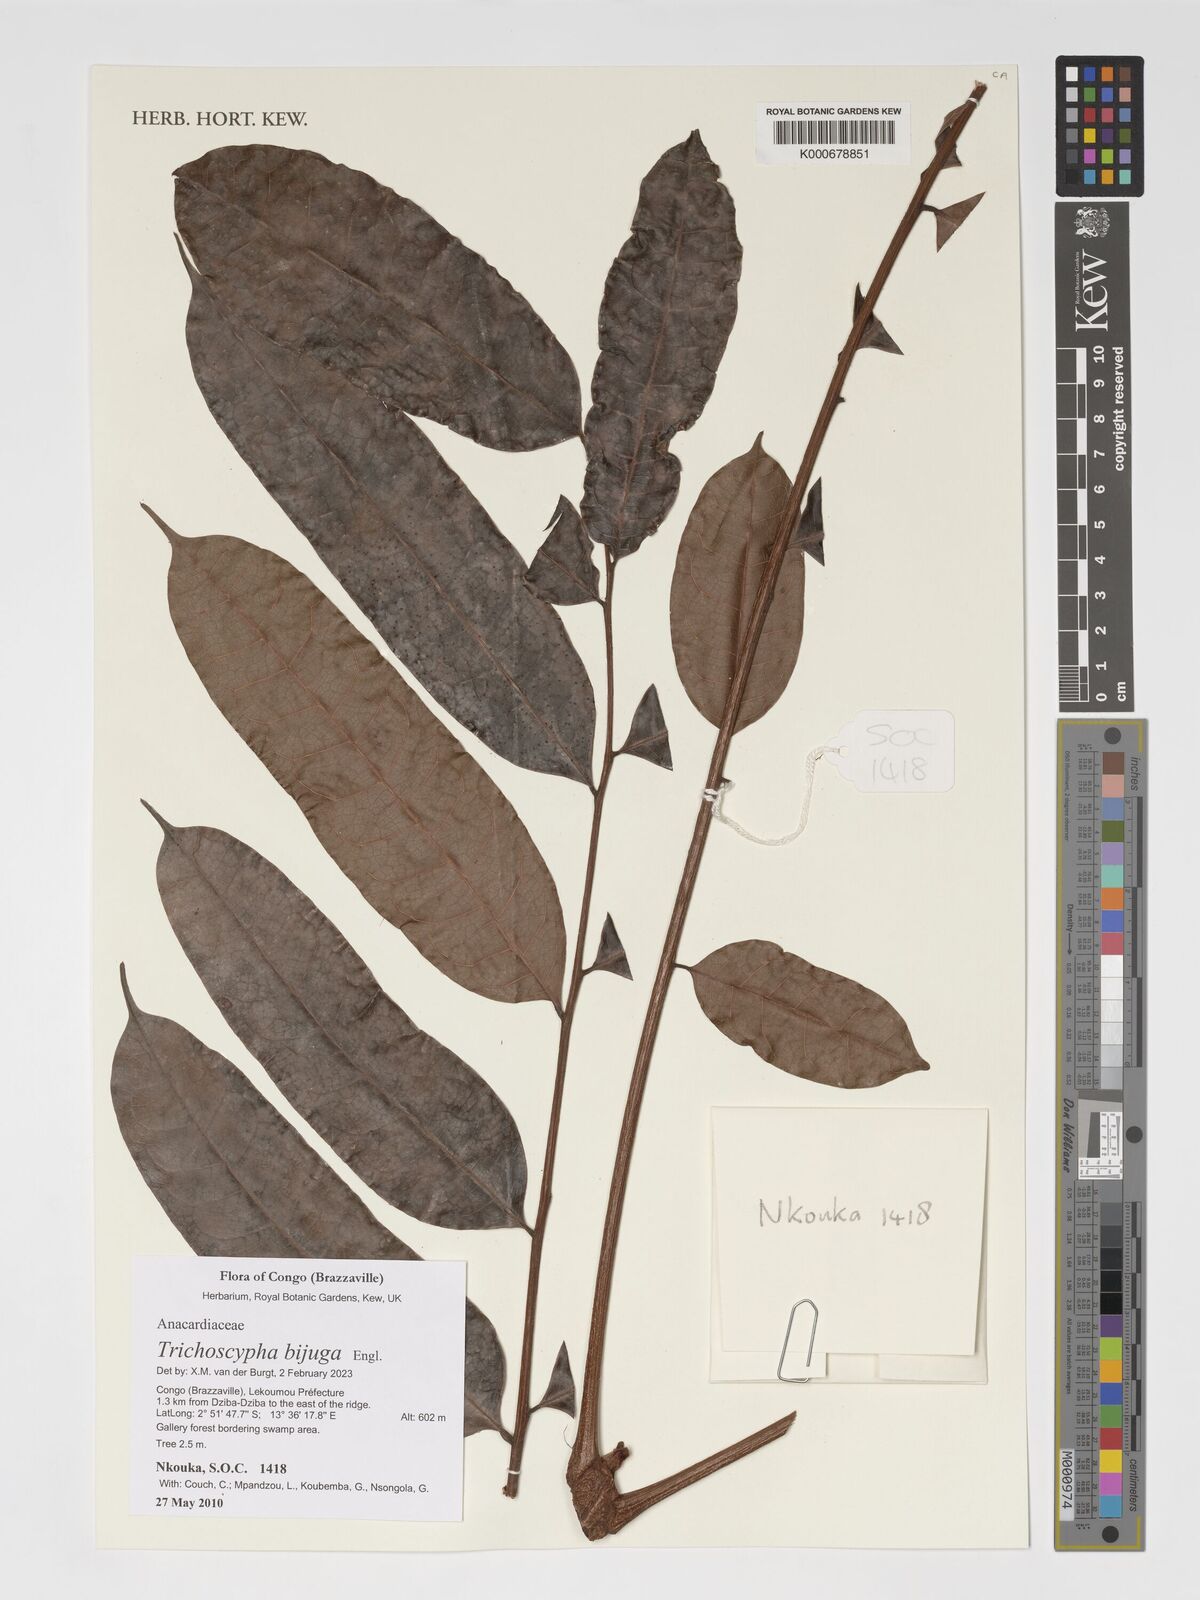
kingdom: Plantae
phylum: Tracheophyta
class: Magnoliopsida
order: Sapindales
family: Anacardiaceae
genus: Trichoscypha
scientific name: Trichoscypha bijuga
